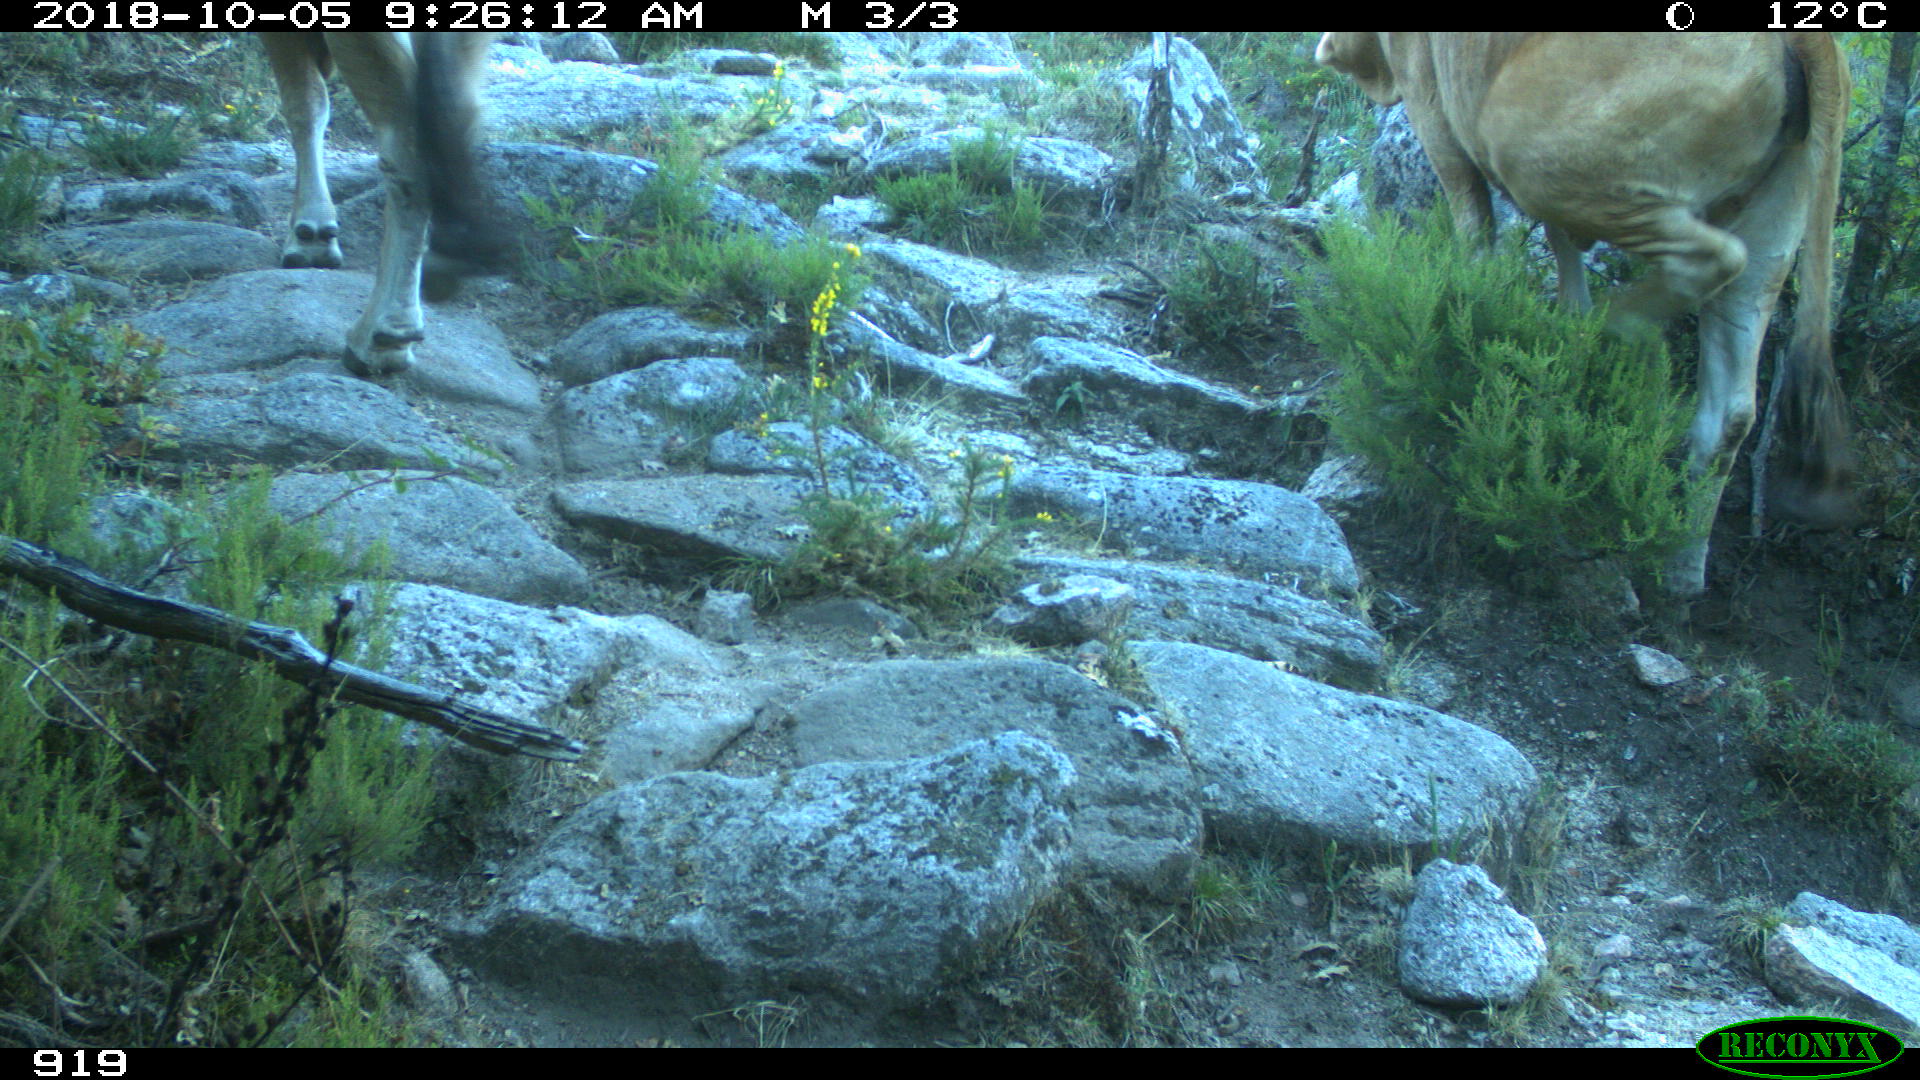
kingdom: Animalia
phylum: Chordata
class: Mammalia
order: Artiodactyla
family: Bovidae
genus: Bos
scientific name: Bos taurus
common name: Domesticated cattle
